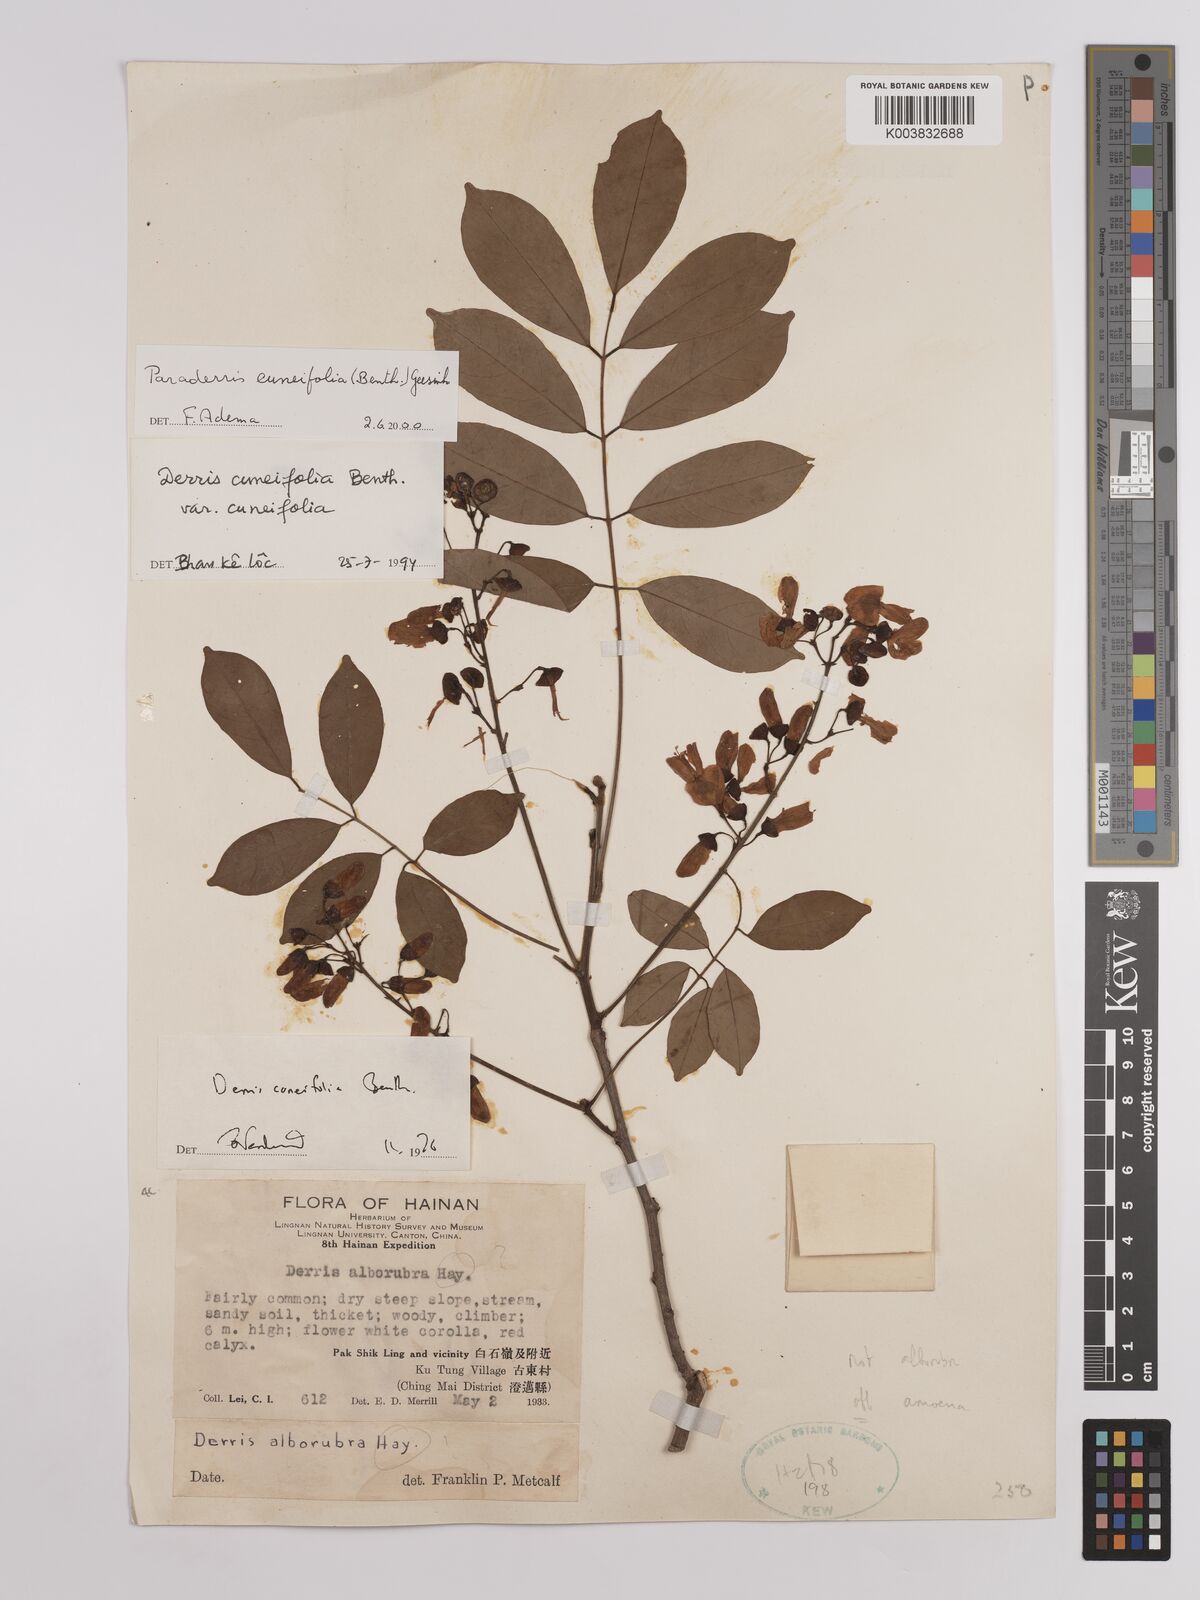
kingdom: Plantae
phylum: Tracheophyta
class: Magnoliopsida
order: Fabales
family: Fabaceae
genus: Derris
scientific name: Derris cuneifolia
